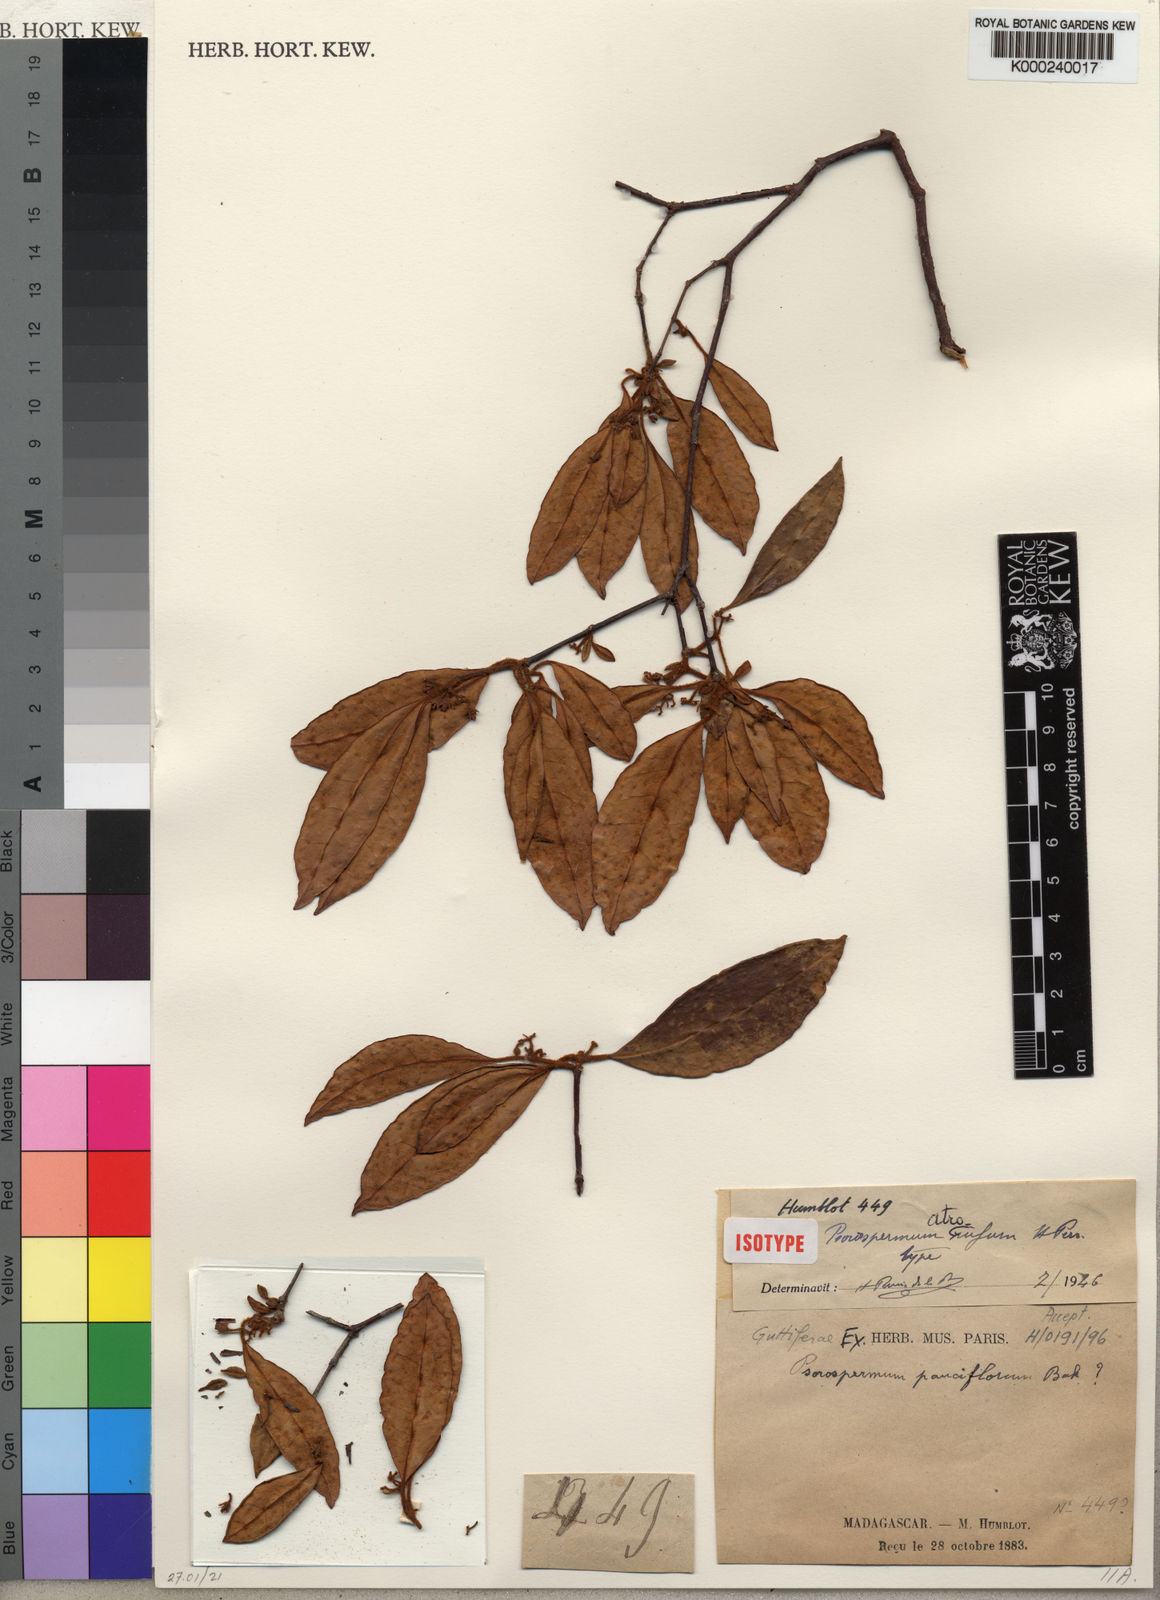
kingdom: Plantae
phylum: Tracheophyta
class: Magnoliopsida
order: Malpighiales
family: Hypericaceae
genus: Psorospermum
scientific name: Psorospermum atrorufum
